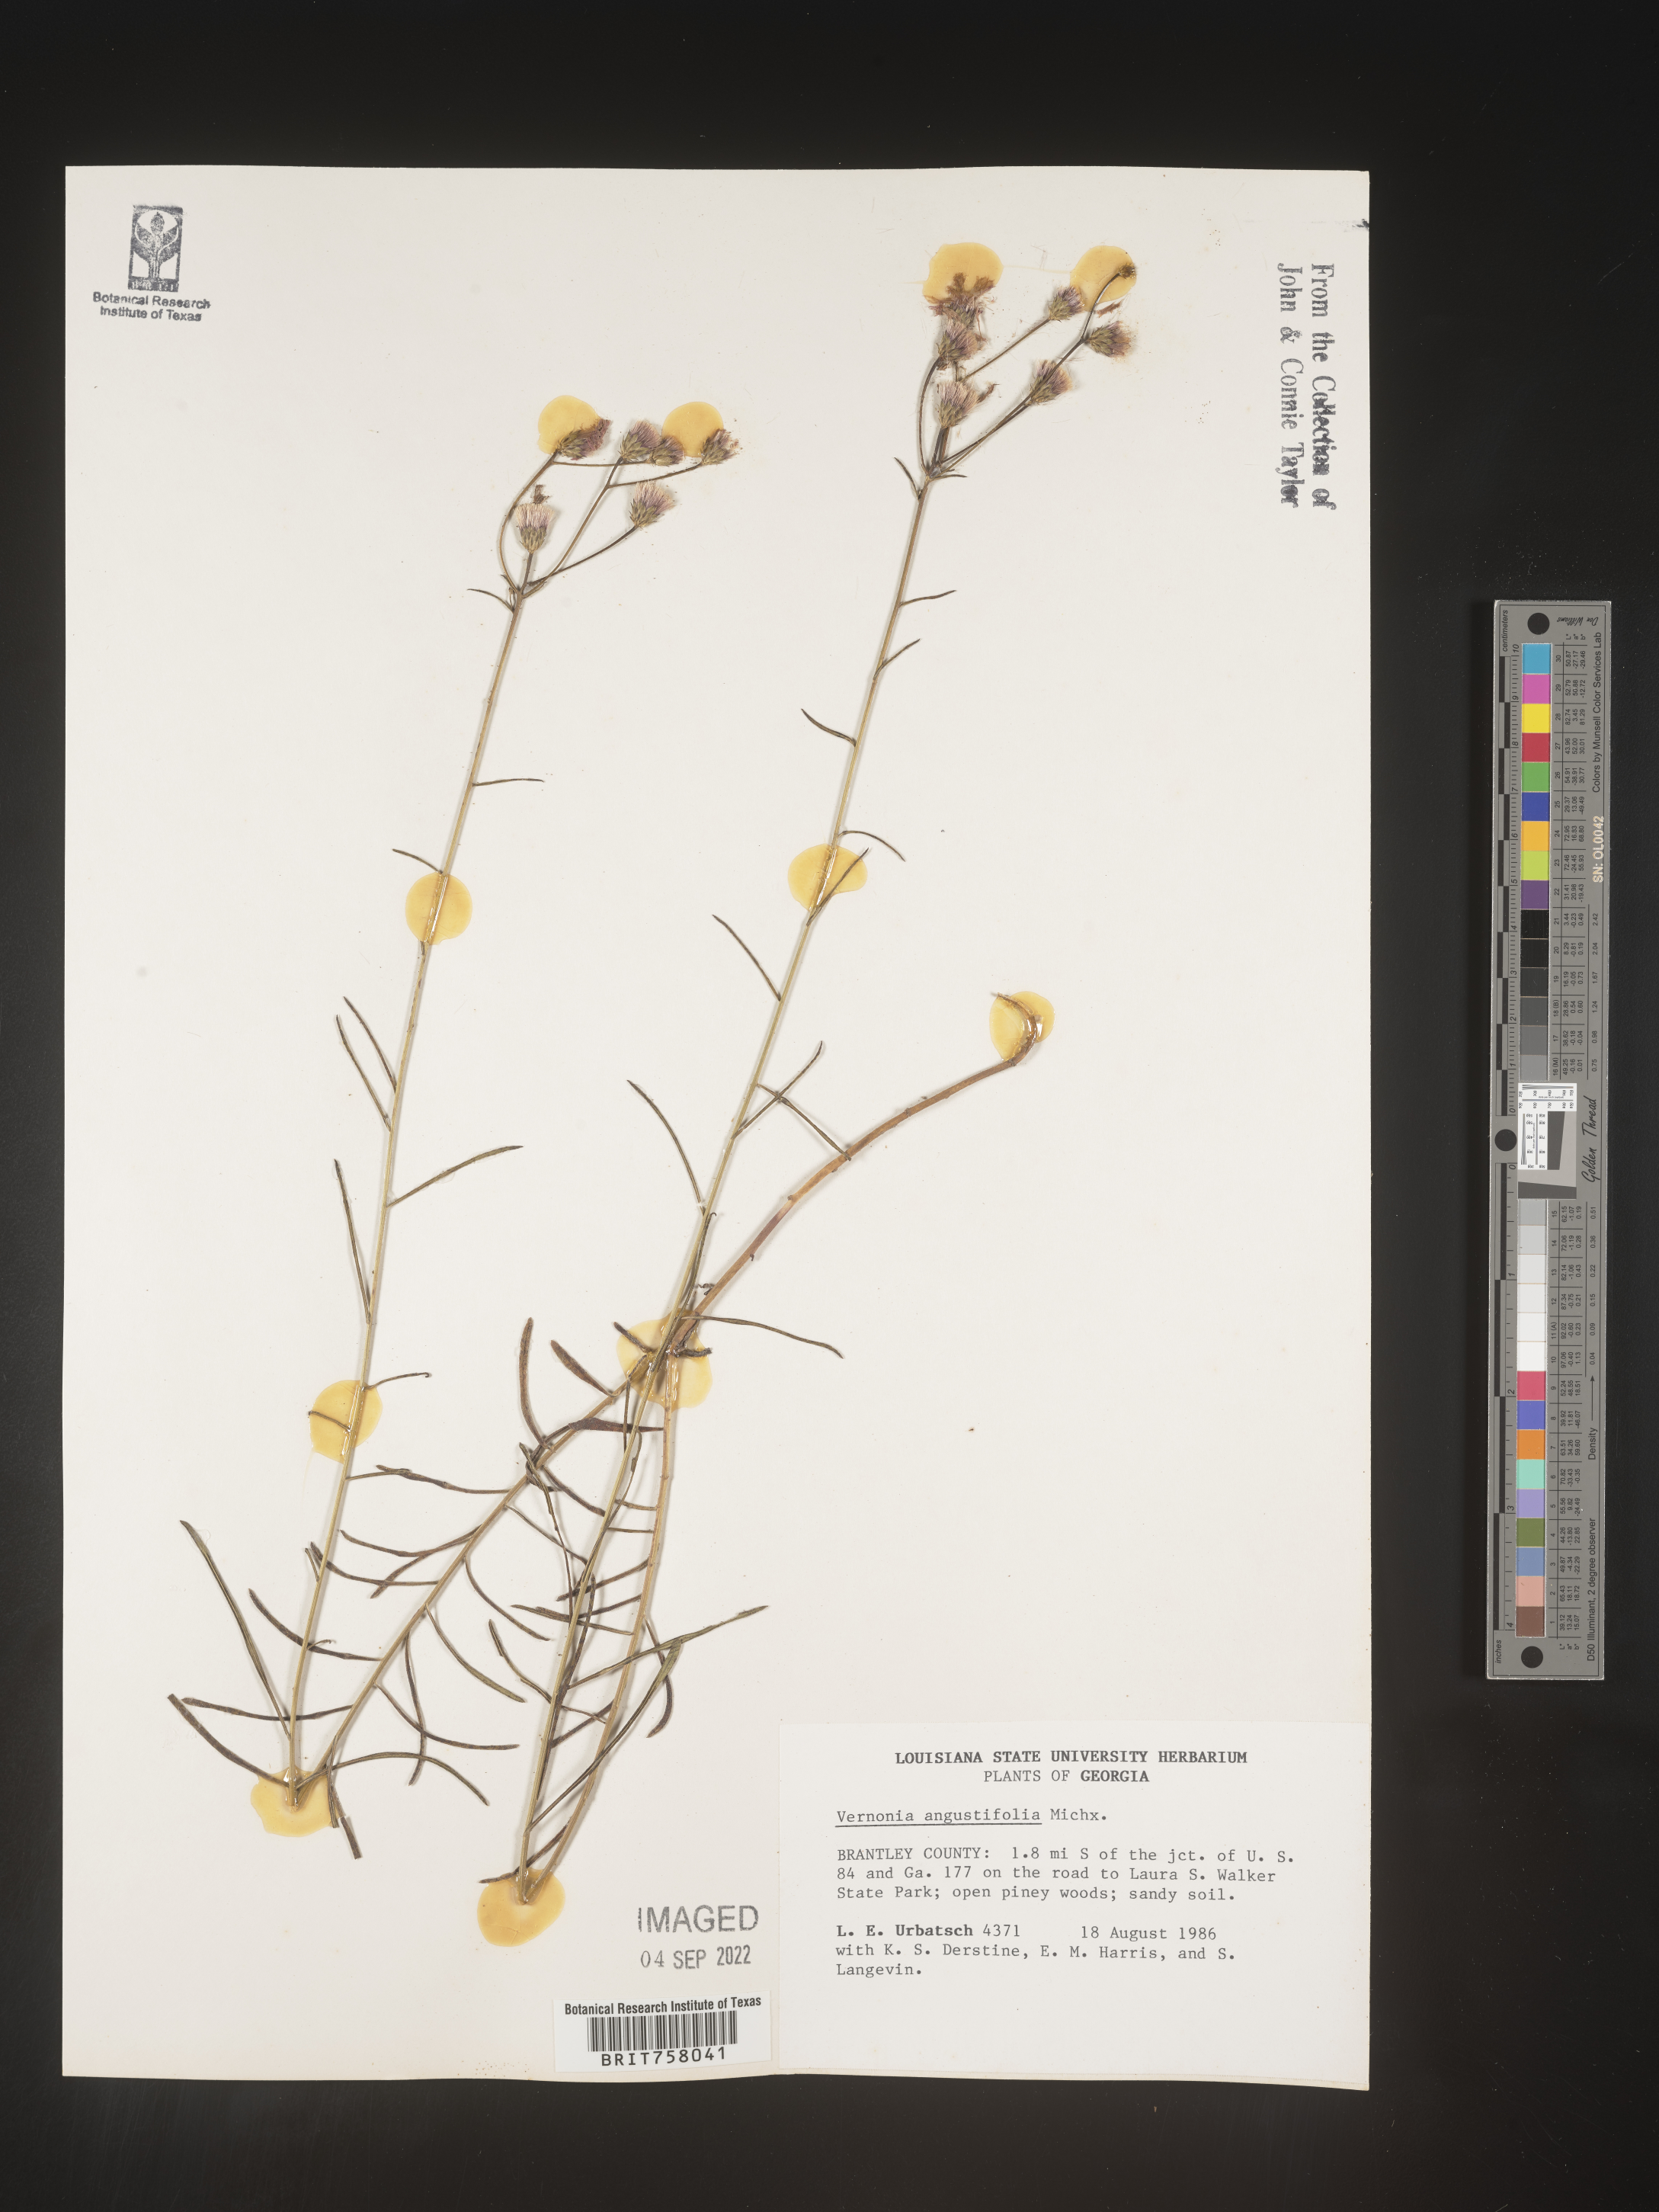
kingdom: Plantae
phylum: Tracheophyta
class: Magnoliopsida
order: Asterales
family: Asteraceae
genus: Vernonia
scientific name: Vernonia angustifolia
